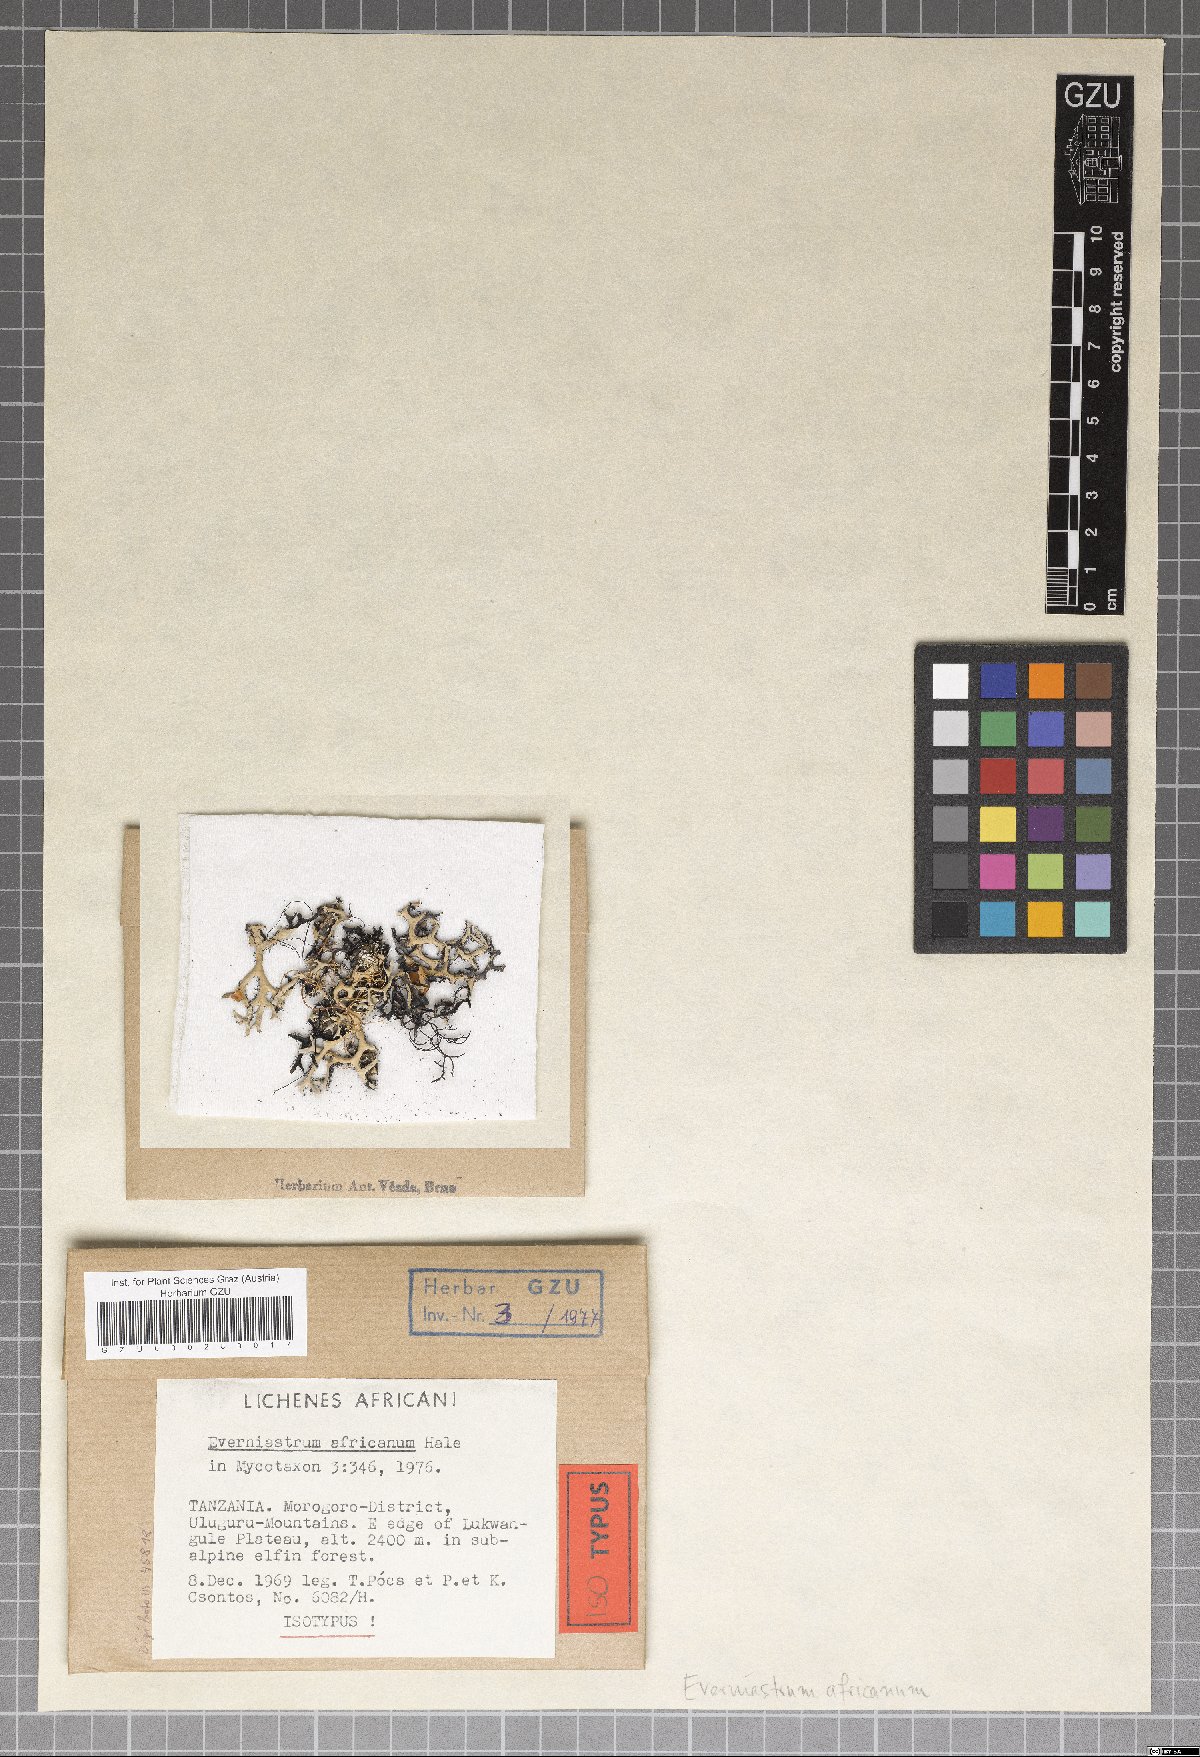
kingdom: Fungi
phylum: Ascomycota
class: Lecanoromycetes
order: Lecanorales
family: Parmeliaceae
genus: Hypotrachyna
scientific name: Hypotrachyna africana
